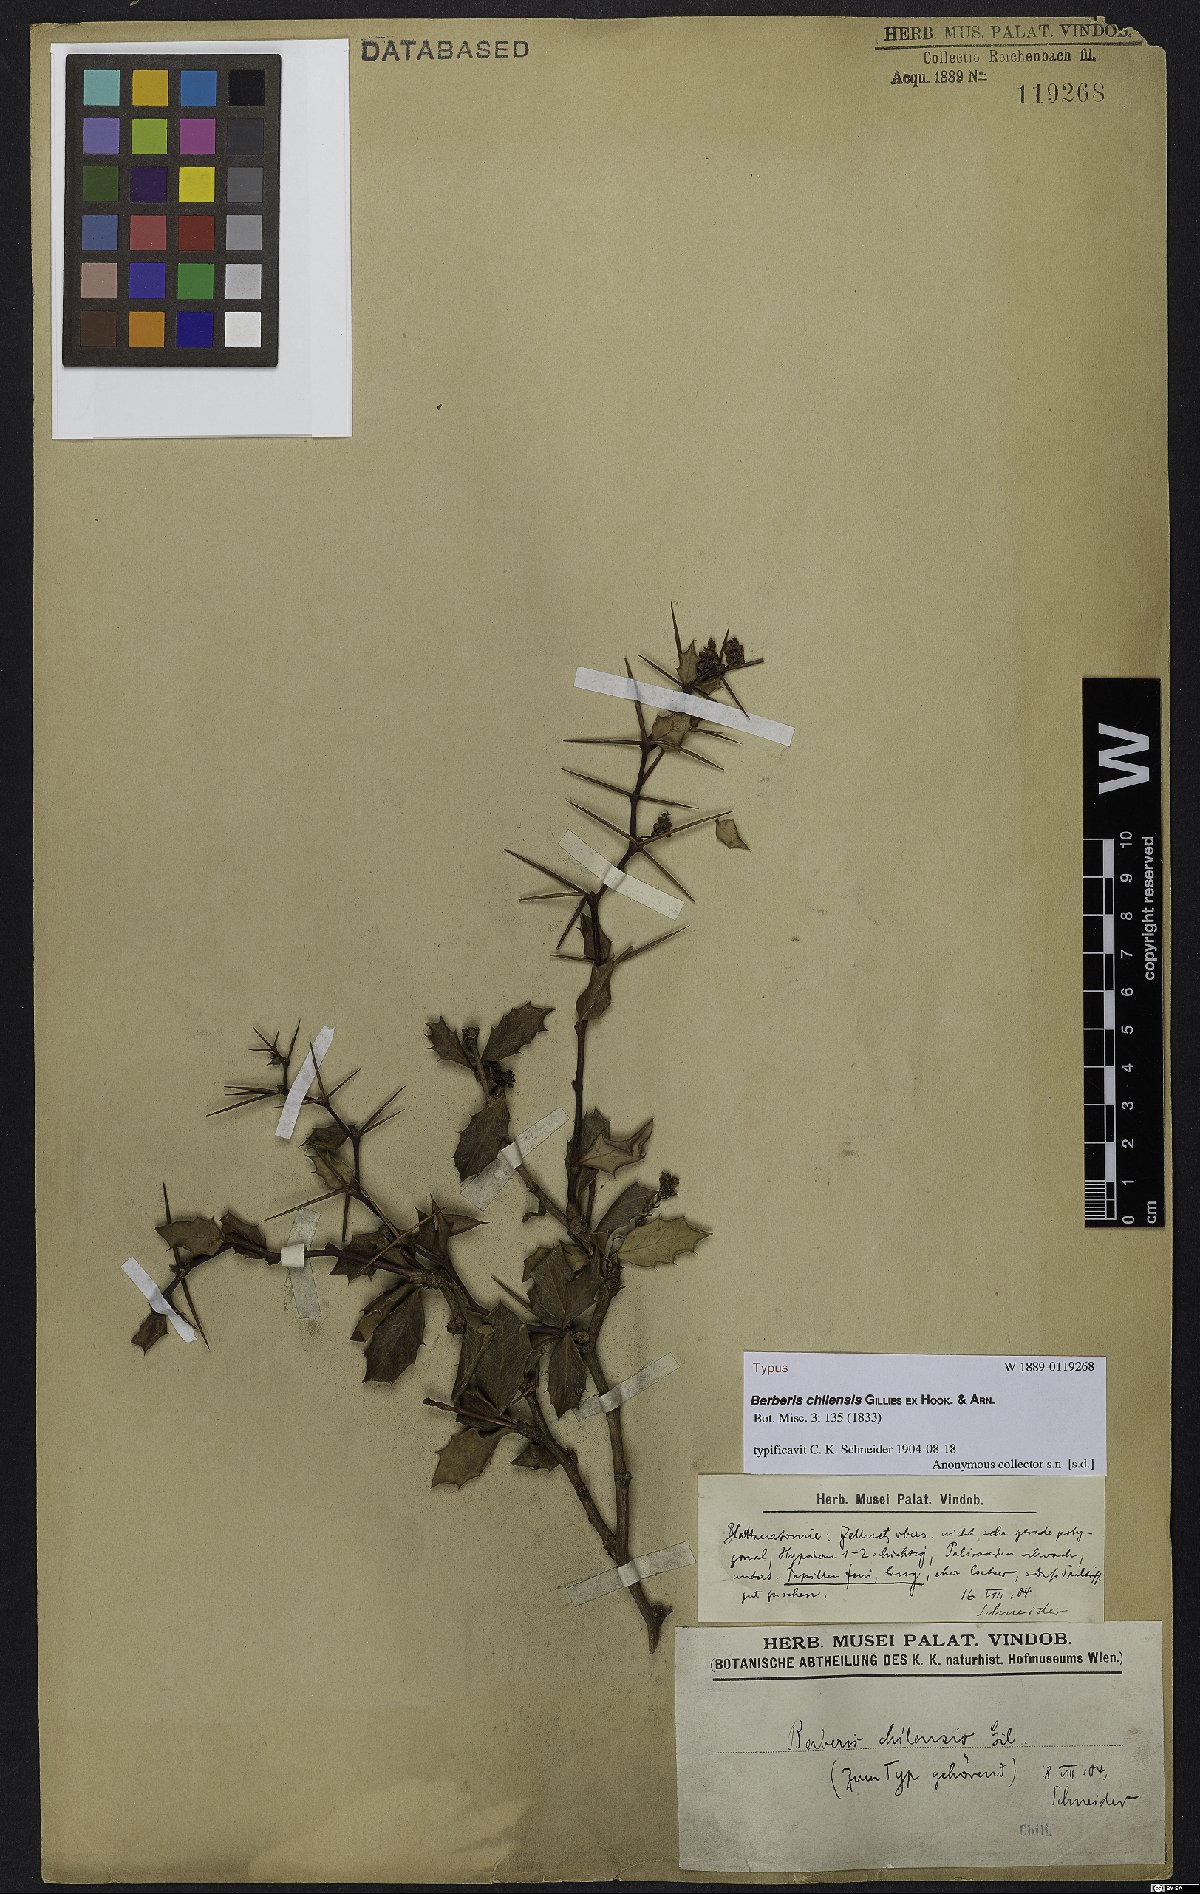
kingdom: Plantae
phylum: Tracheophyta
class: Magnoliopsida
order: Ranunculales
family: Berberidaceae
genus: Berberis
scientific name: Berberis chilensis
